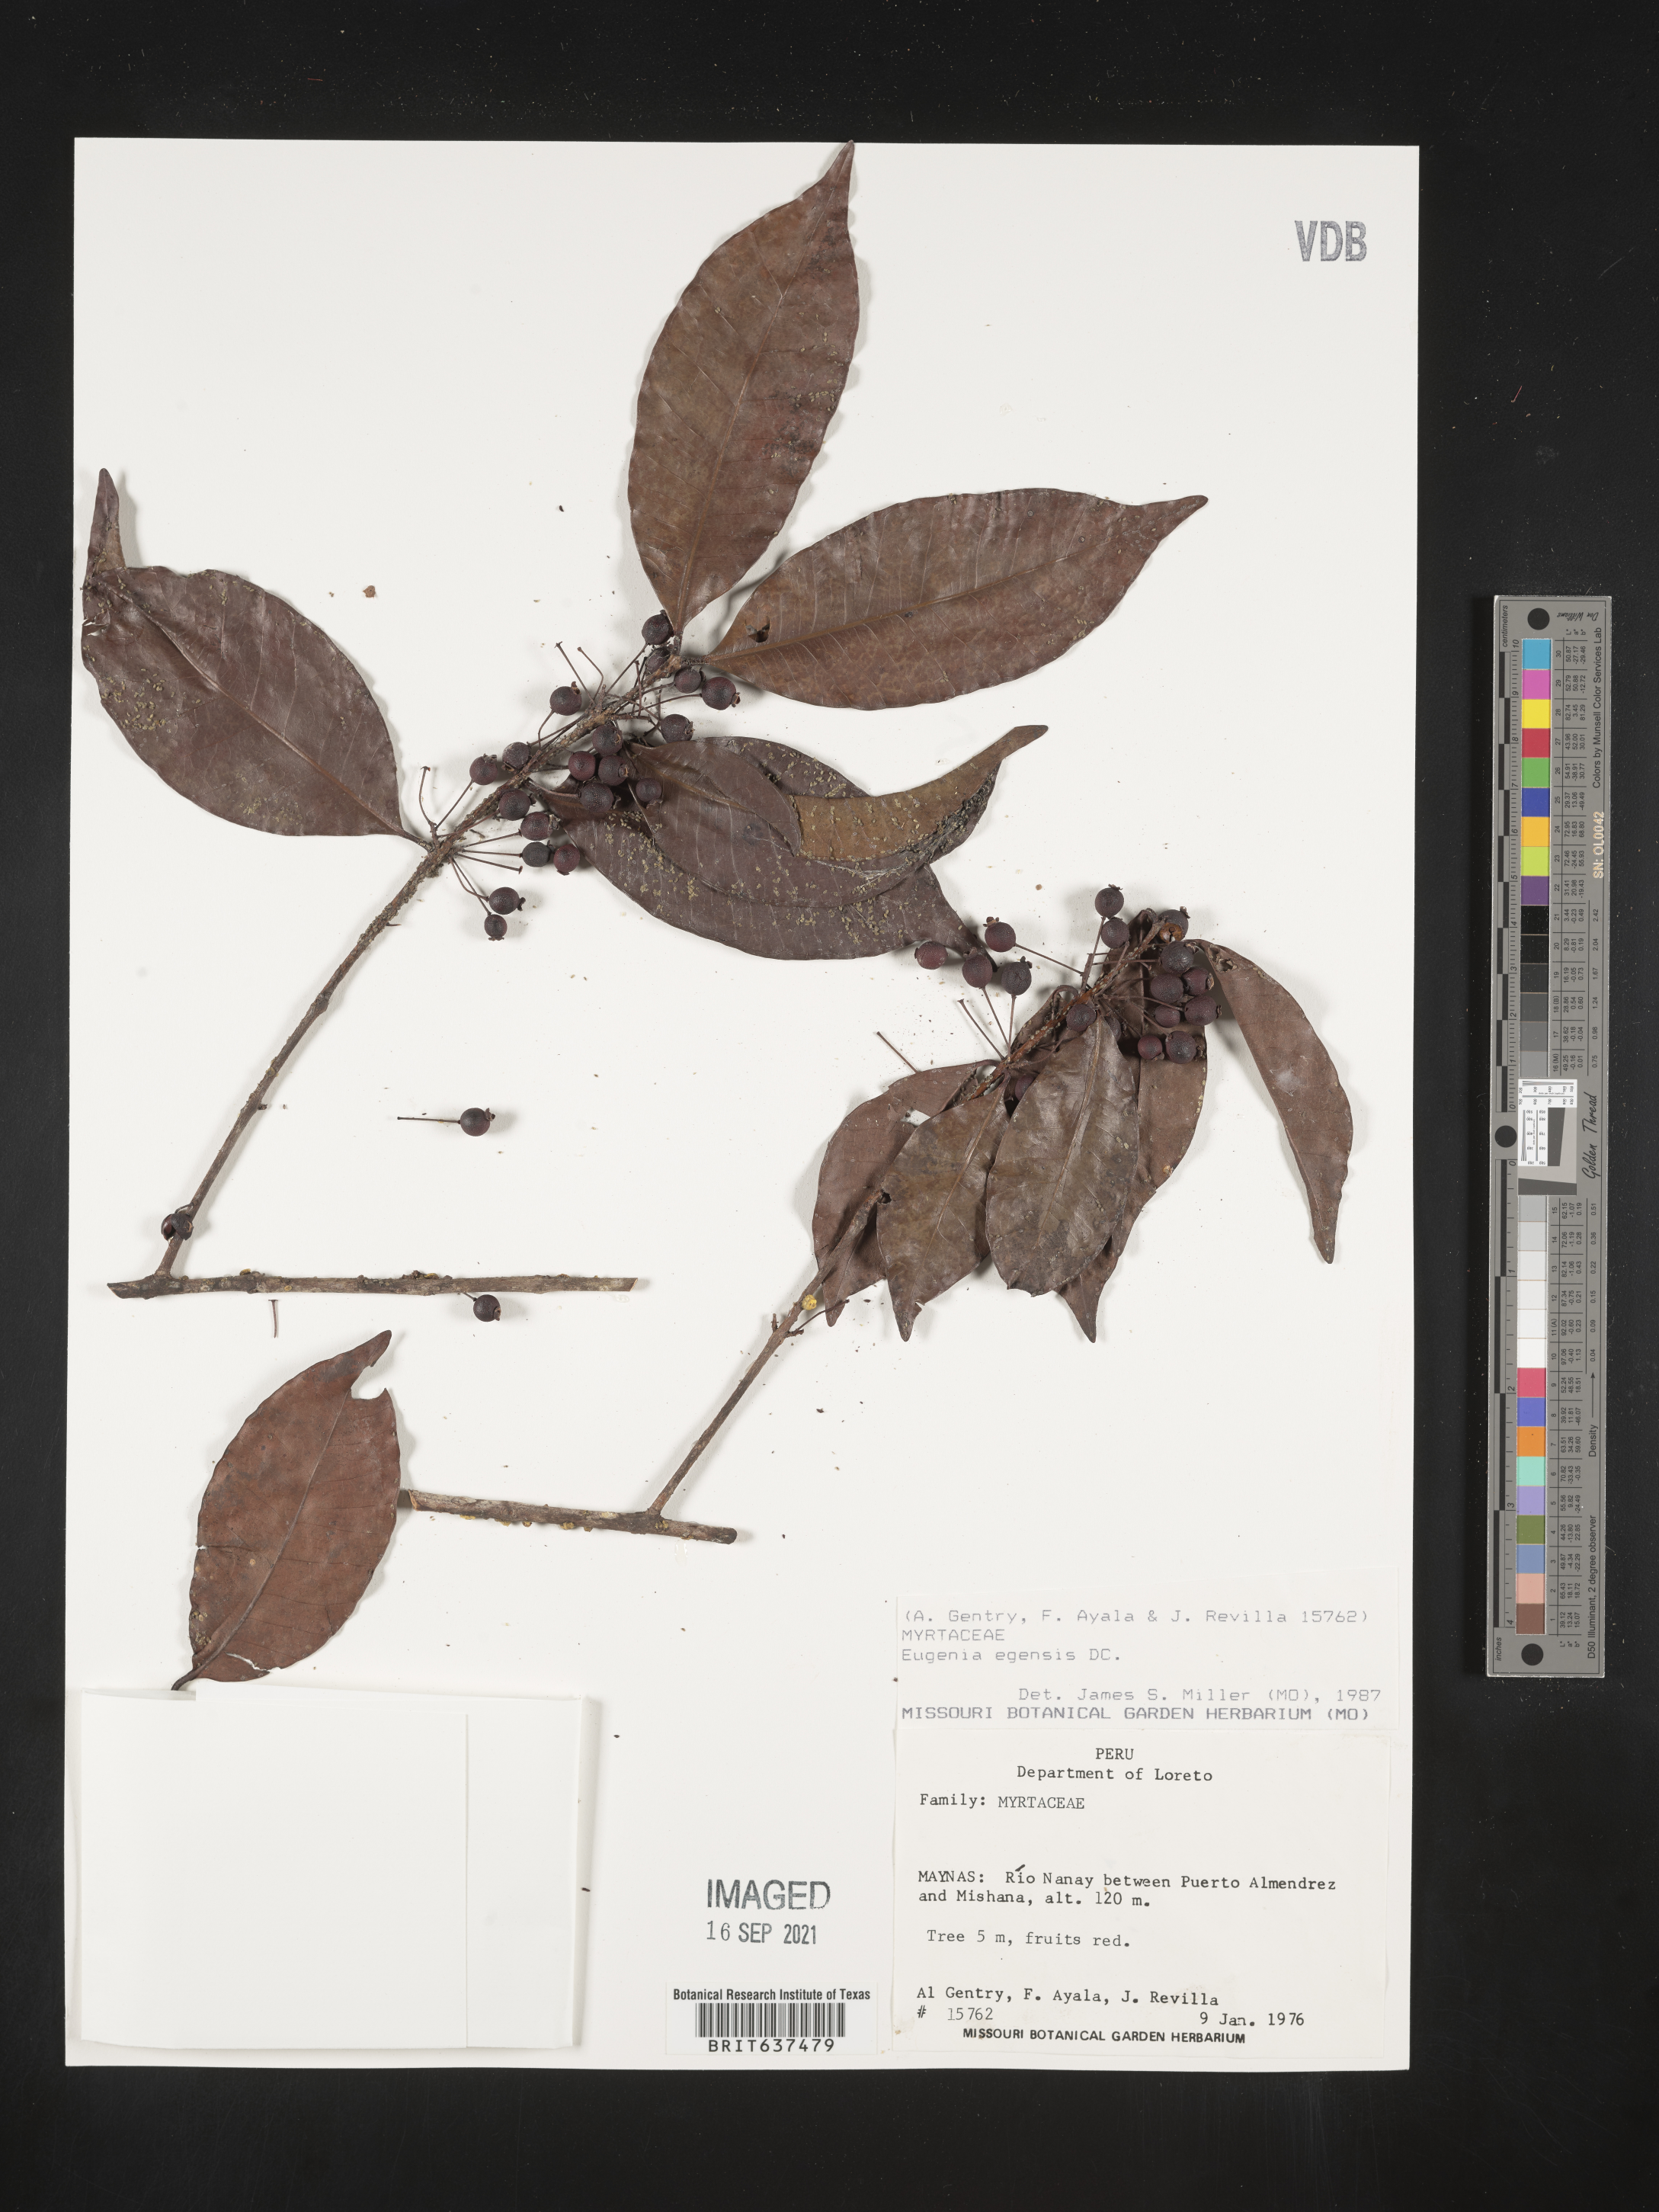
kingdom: Plantae
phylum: Tracheophyta
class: Magnoliopsida
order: Myrtales
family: Myrtaceae
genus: Eugenia
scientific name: Eugenia
